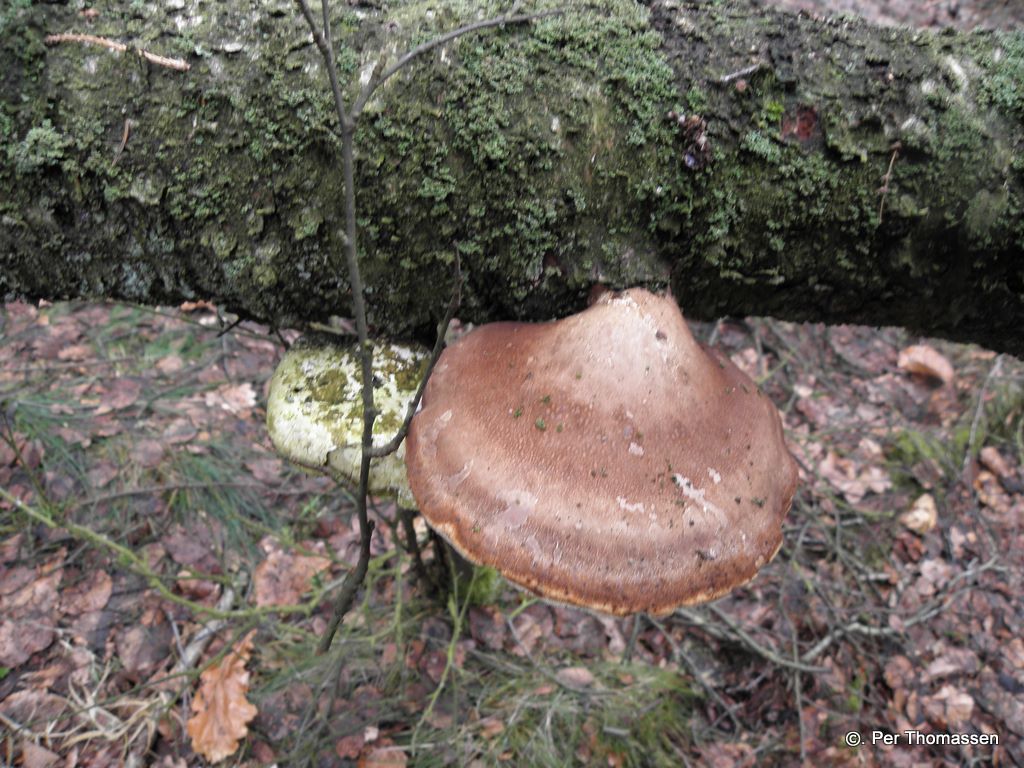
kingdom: Fungi
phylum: Basidiomycota
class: Agaricomycetes
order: Polyporales
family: Fomitopsidaceae
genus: Fomitopsis
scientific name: Fomitopsis betulina
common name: birkeporesvamp
